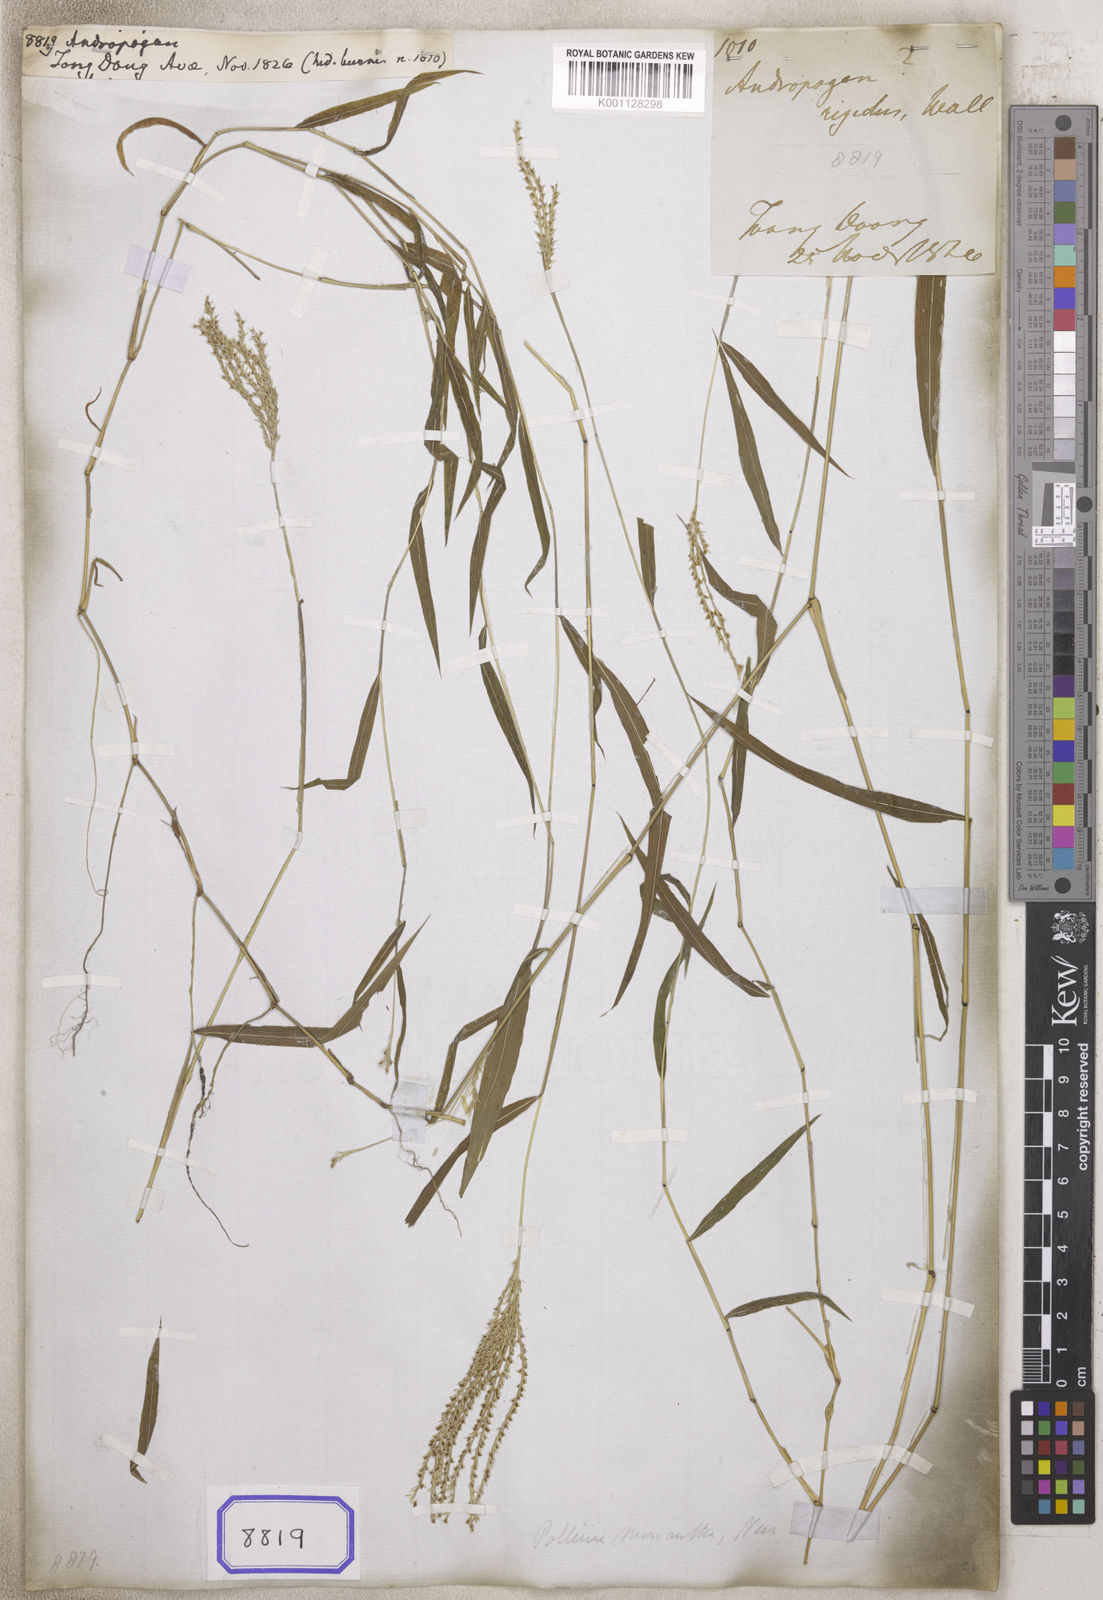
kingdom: Plantae
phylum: Tracheophyta
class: Liliopsida
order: Poales
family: Poaceae
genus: Andropogon
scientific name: Andropogon
